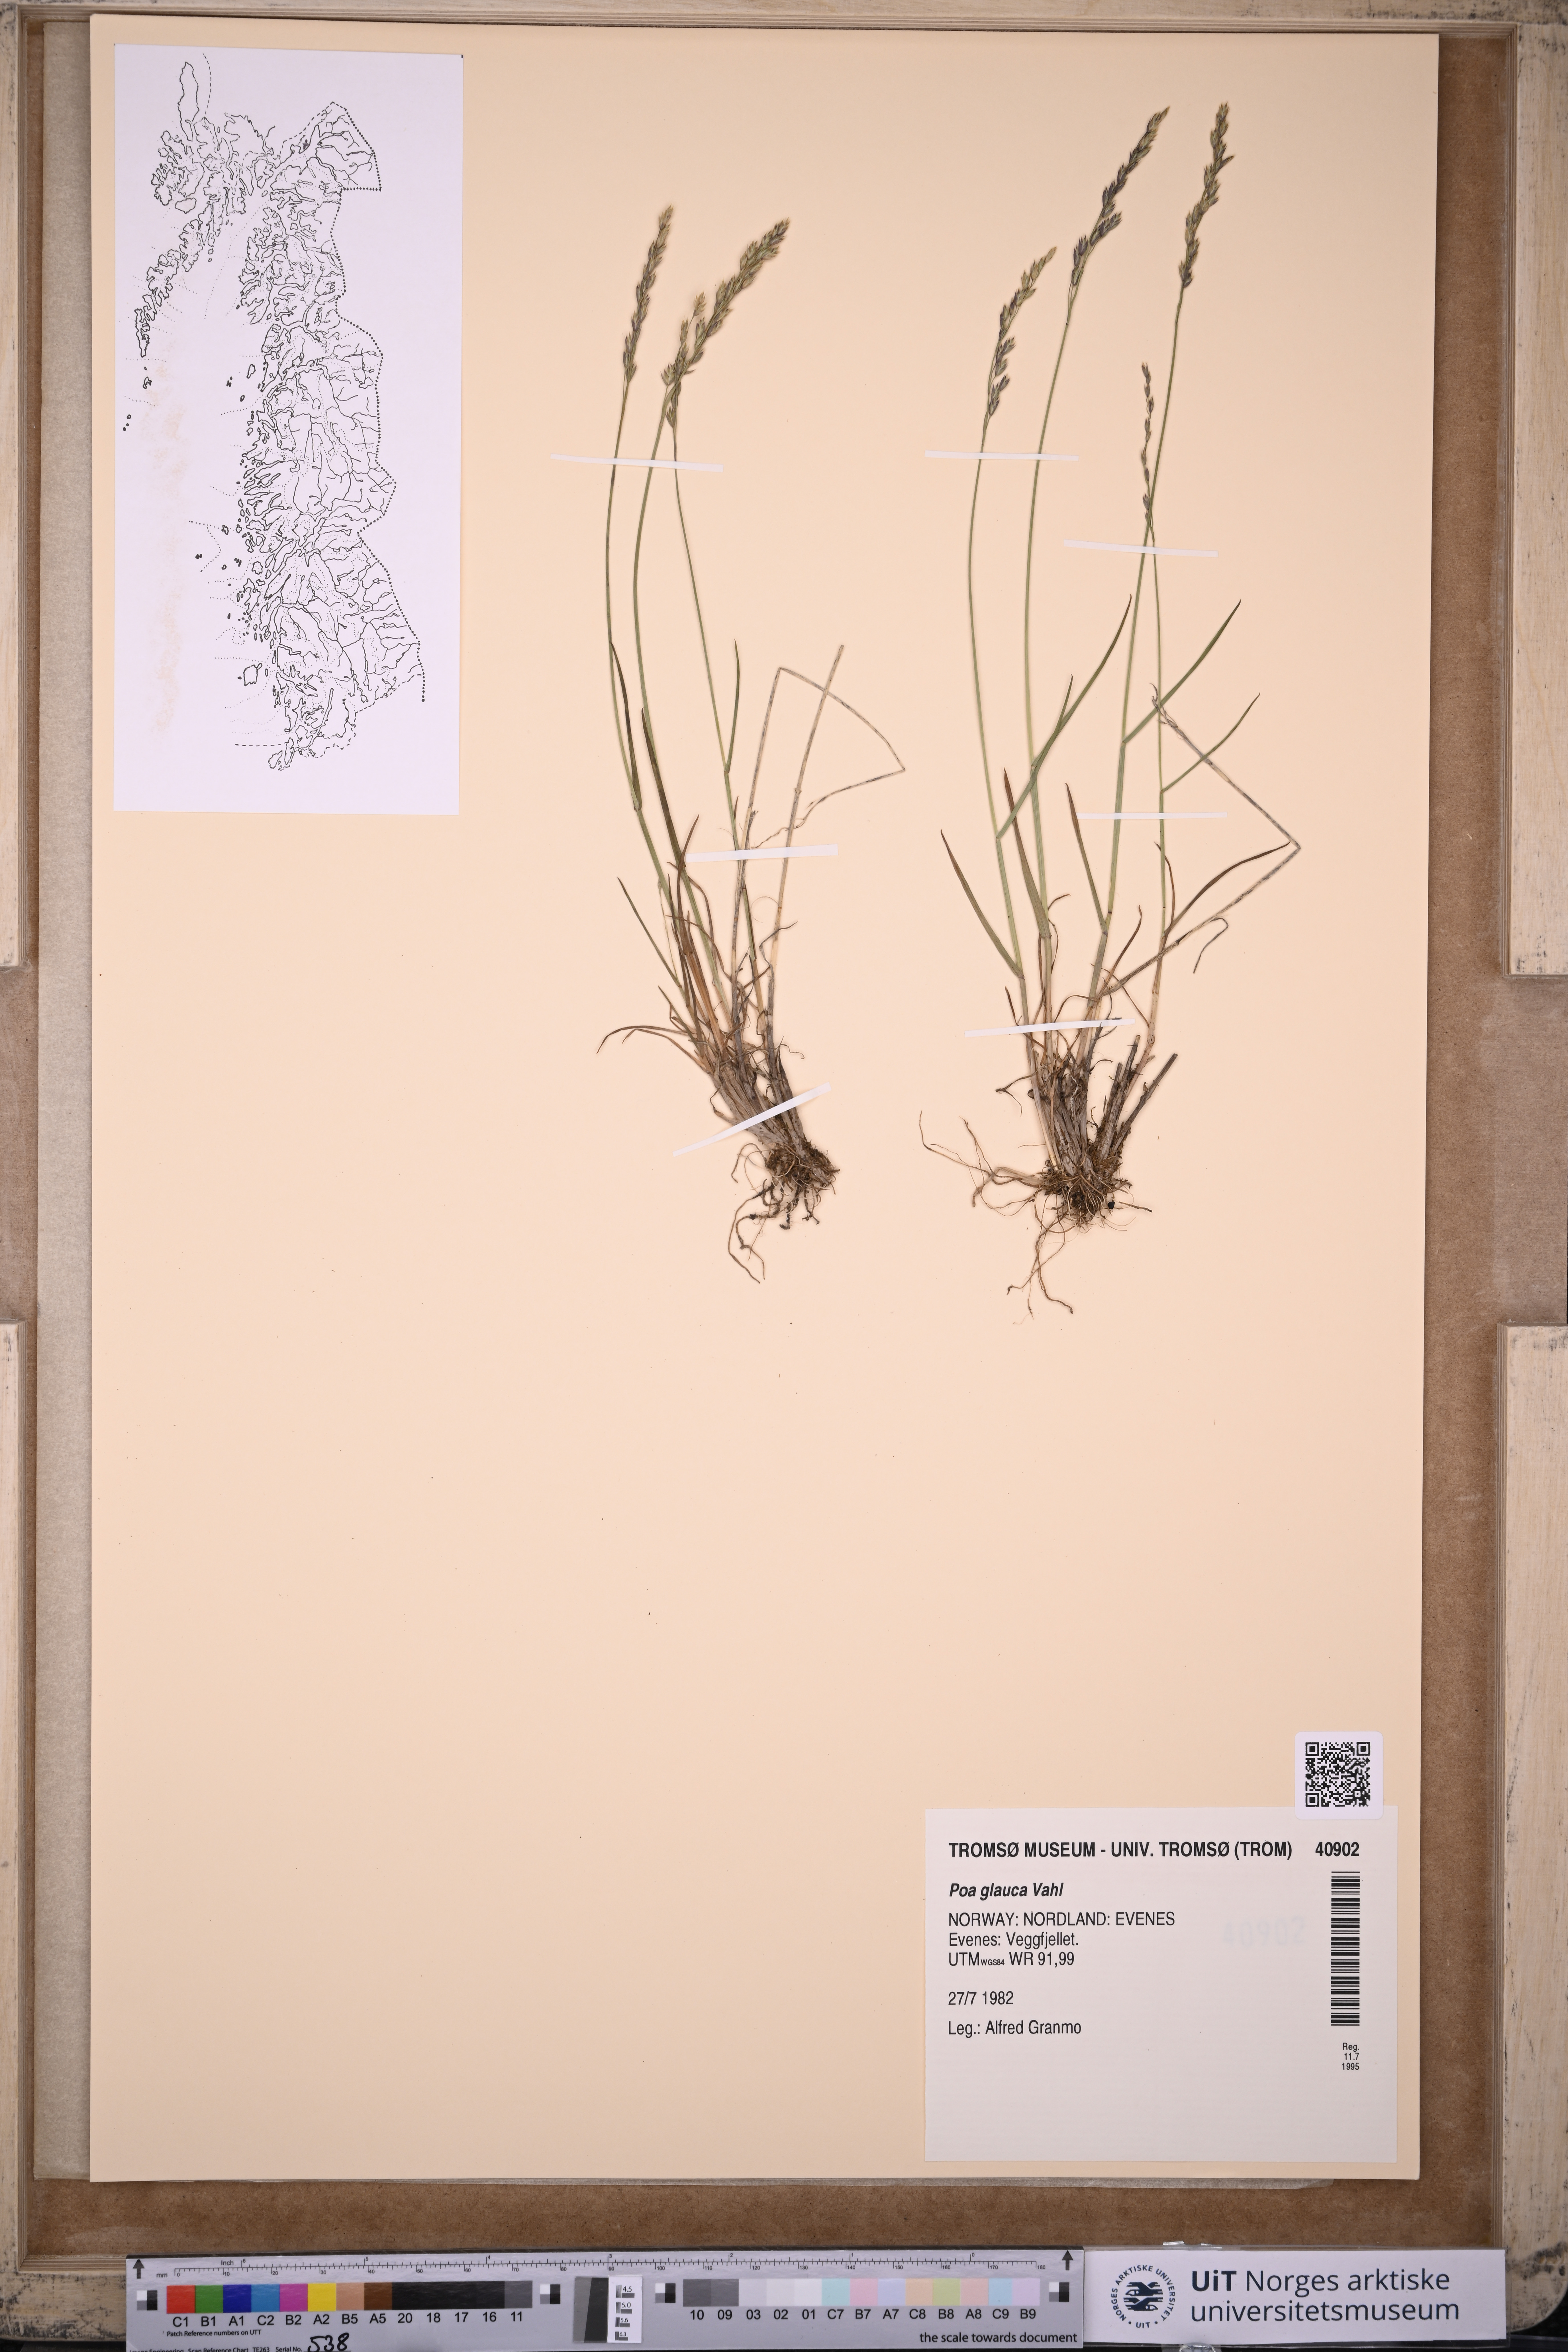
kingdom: Plantae
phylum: Tracheophyta
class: Liliopsida
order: Poales
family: Poaceae
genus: Poa
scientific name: Poa glauca
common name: Glaucous bluegrass
